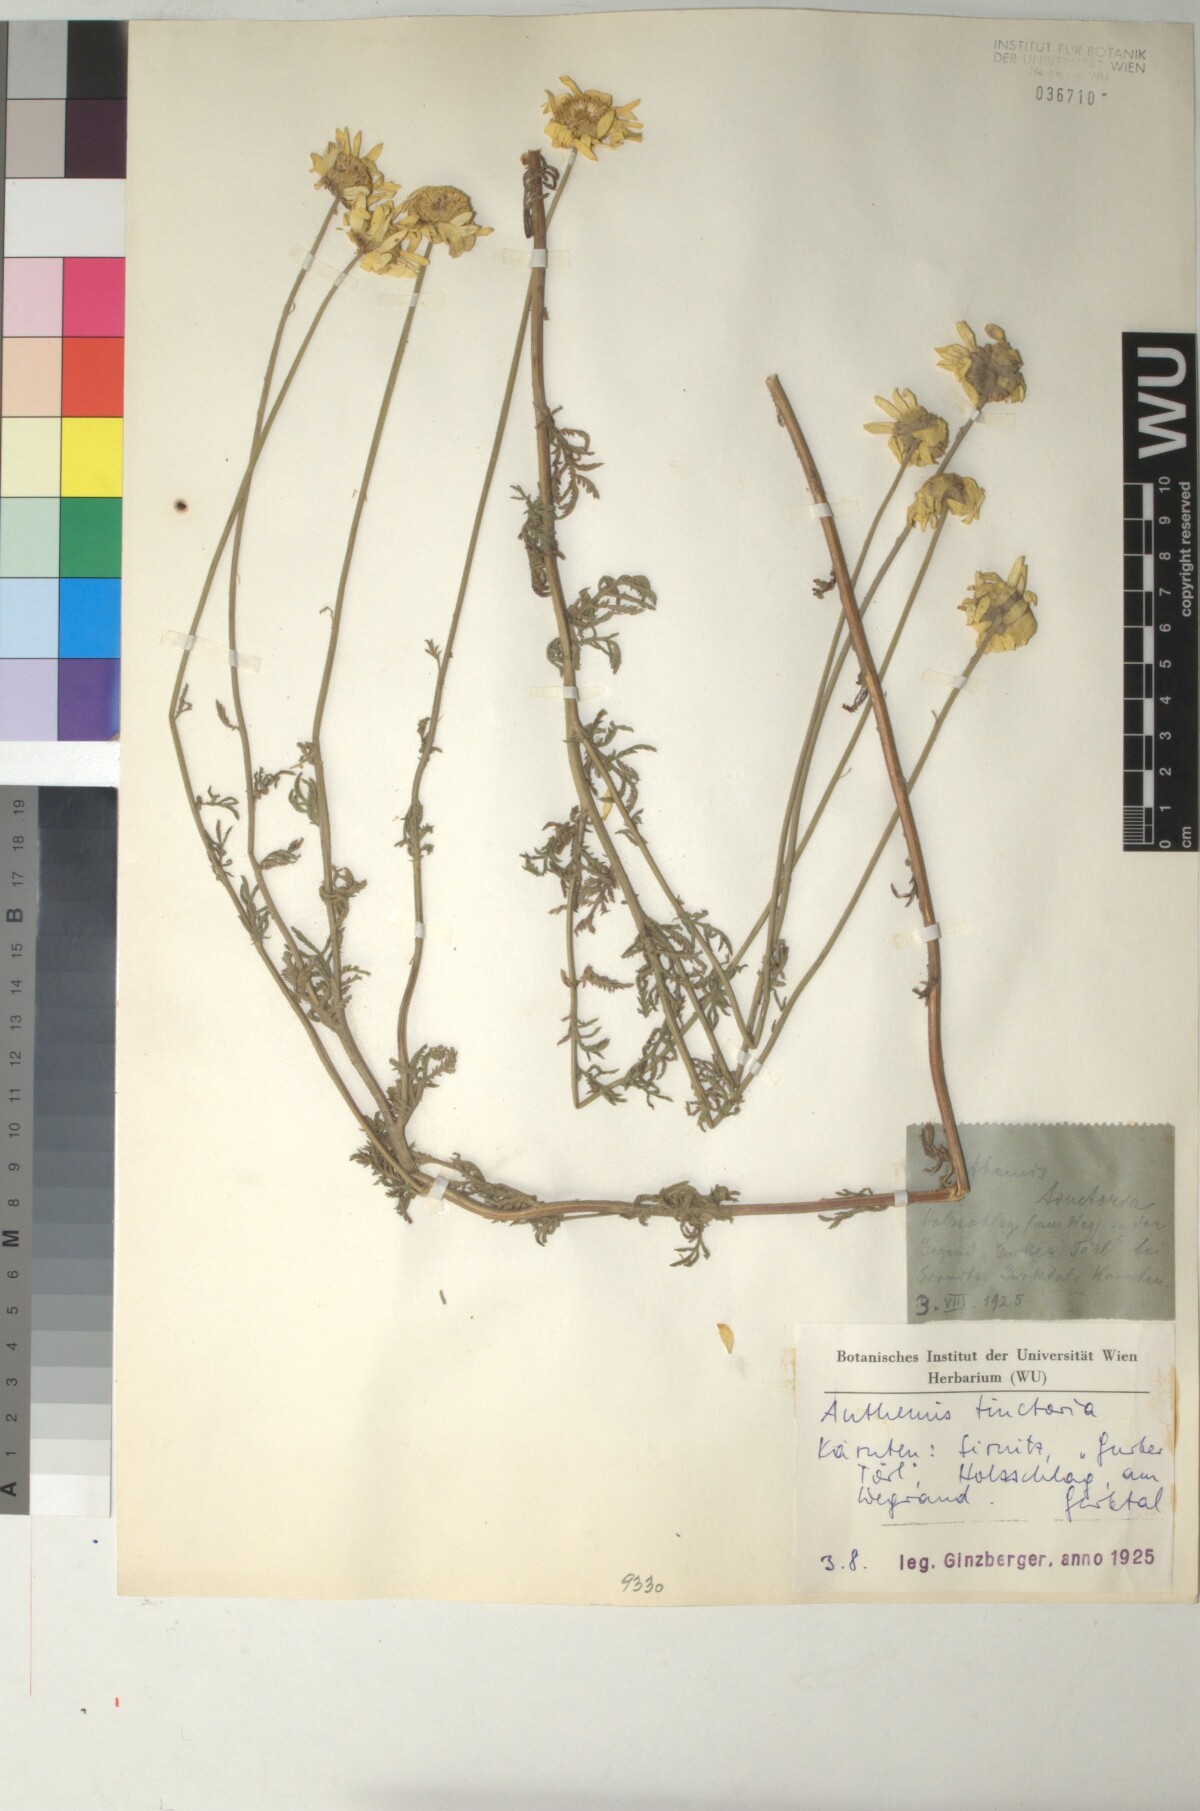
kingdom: Plantae
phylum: Tracheophyta
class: Magnoliopsida
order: Asterales
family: Asteraceae
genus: Cota
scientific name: Cota tinctoria
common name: Golden chamomile
